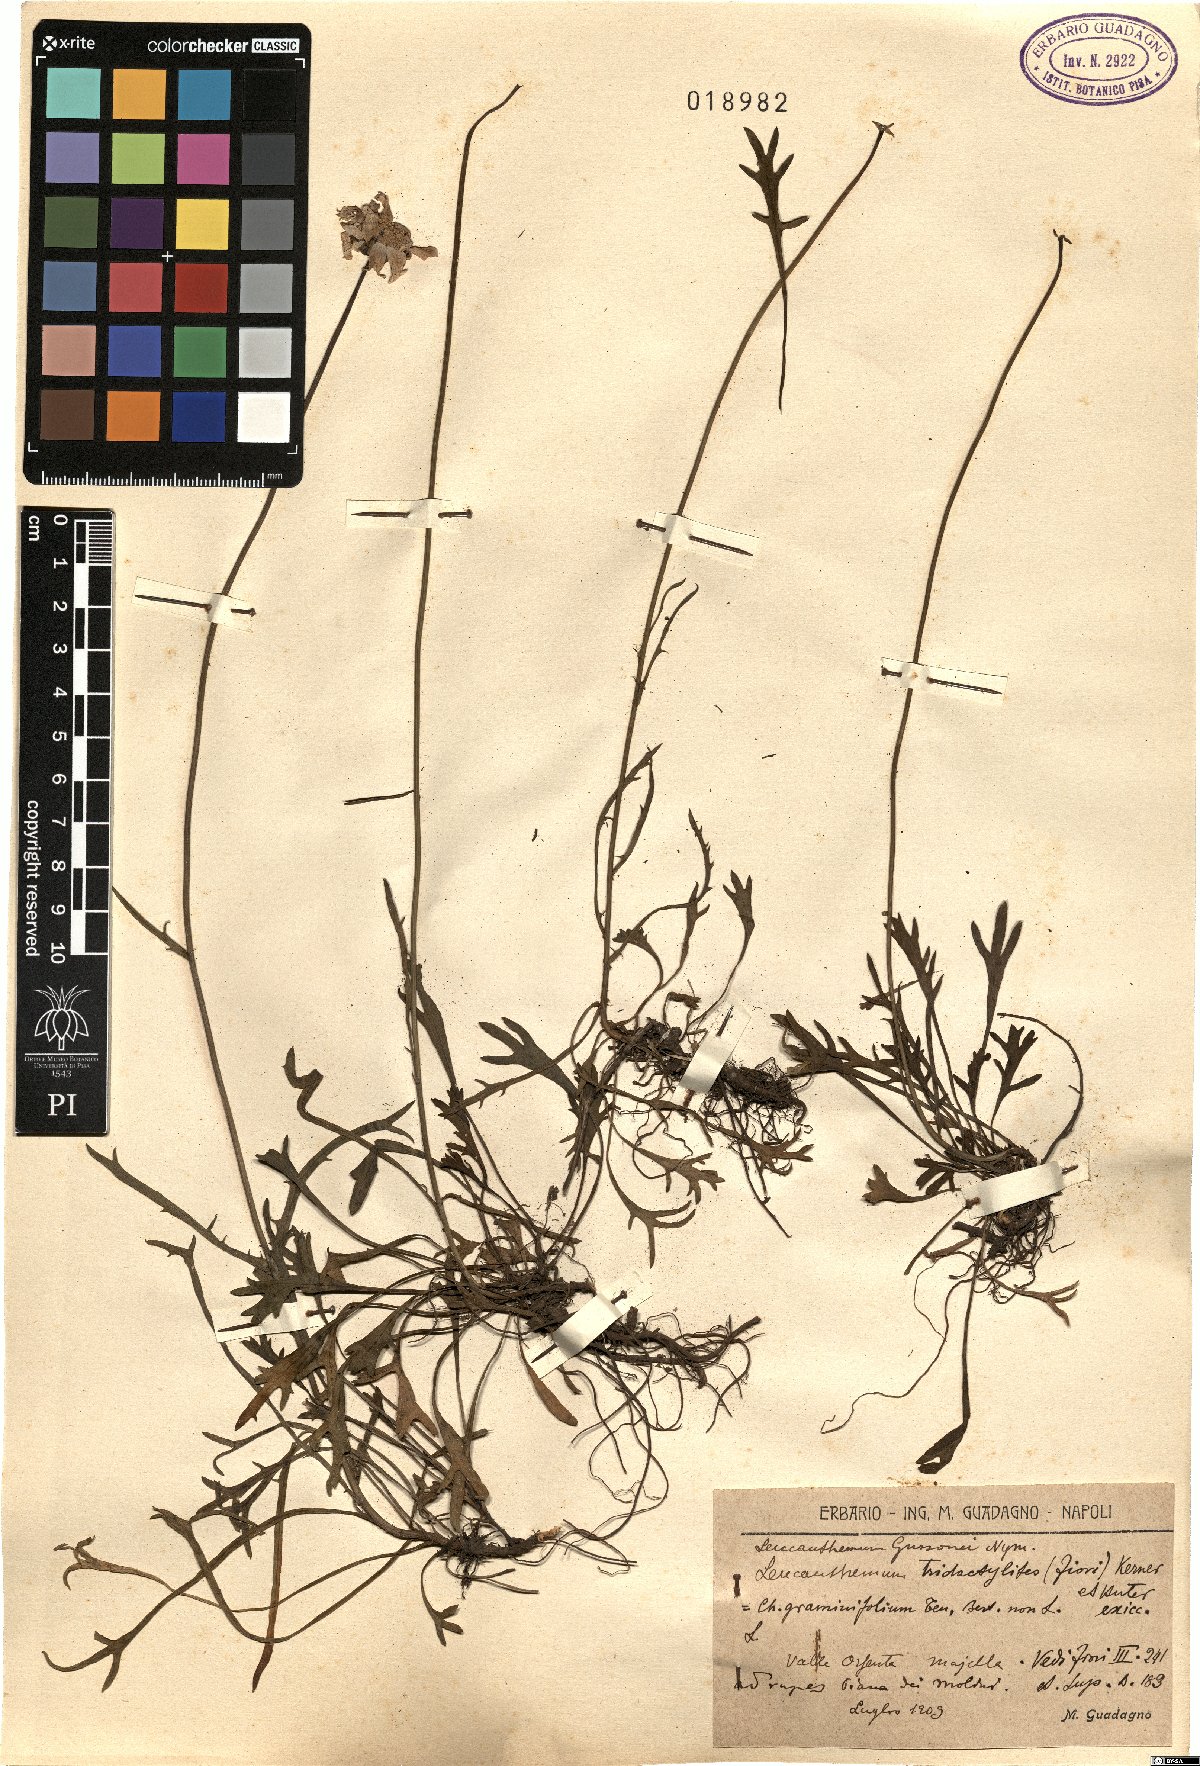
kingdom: Plantae
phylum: Tracheophyta
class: Magnoliopsida
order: Asterales
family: Asteraceae
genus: Leucanthemum
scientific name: Leucanthemum tridactylites
